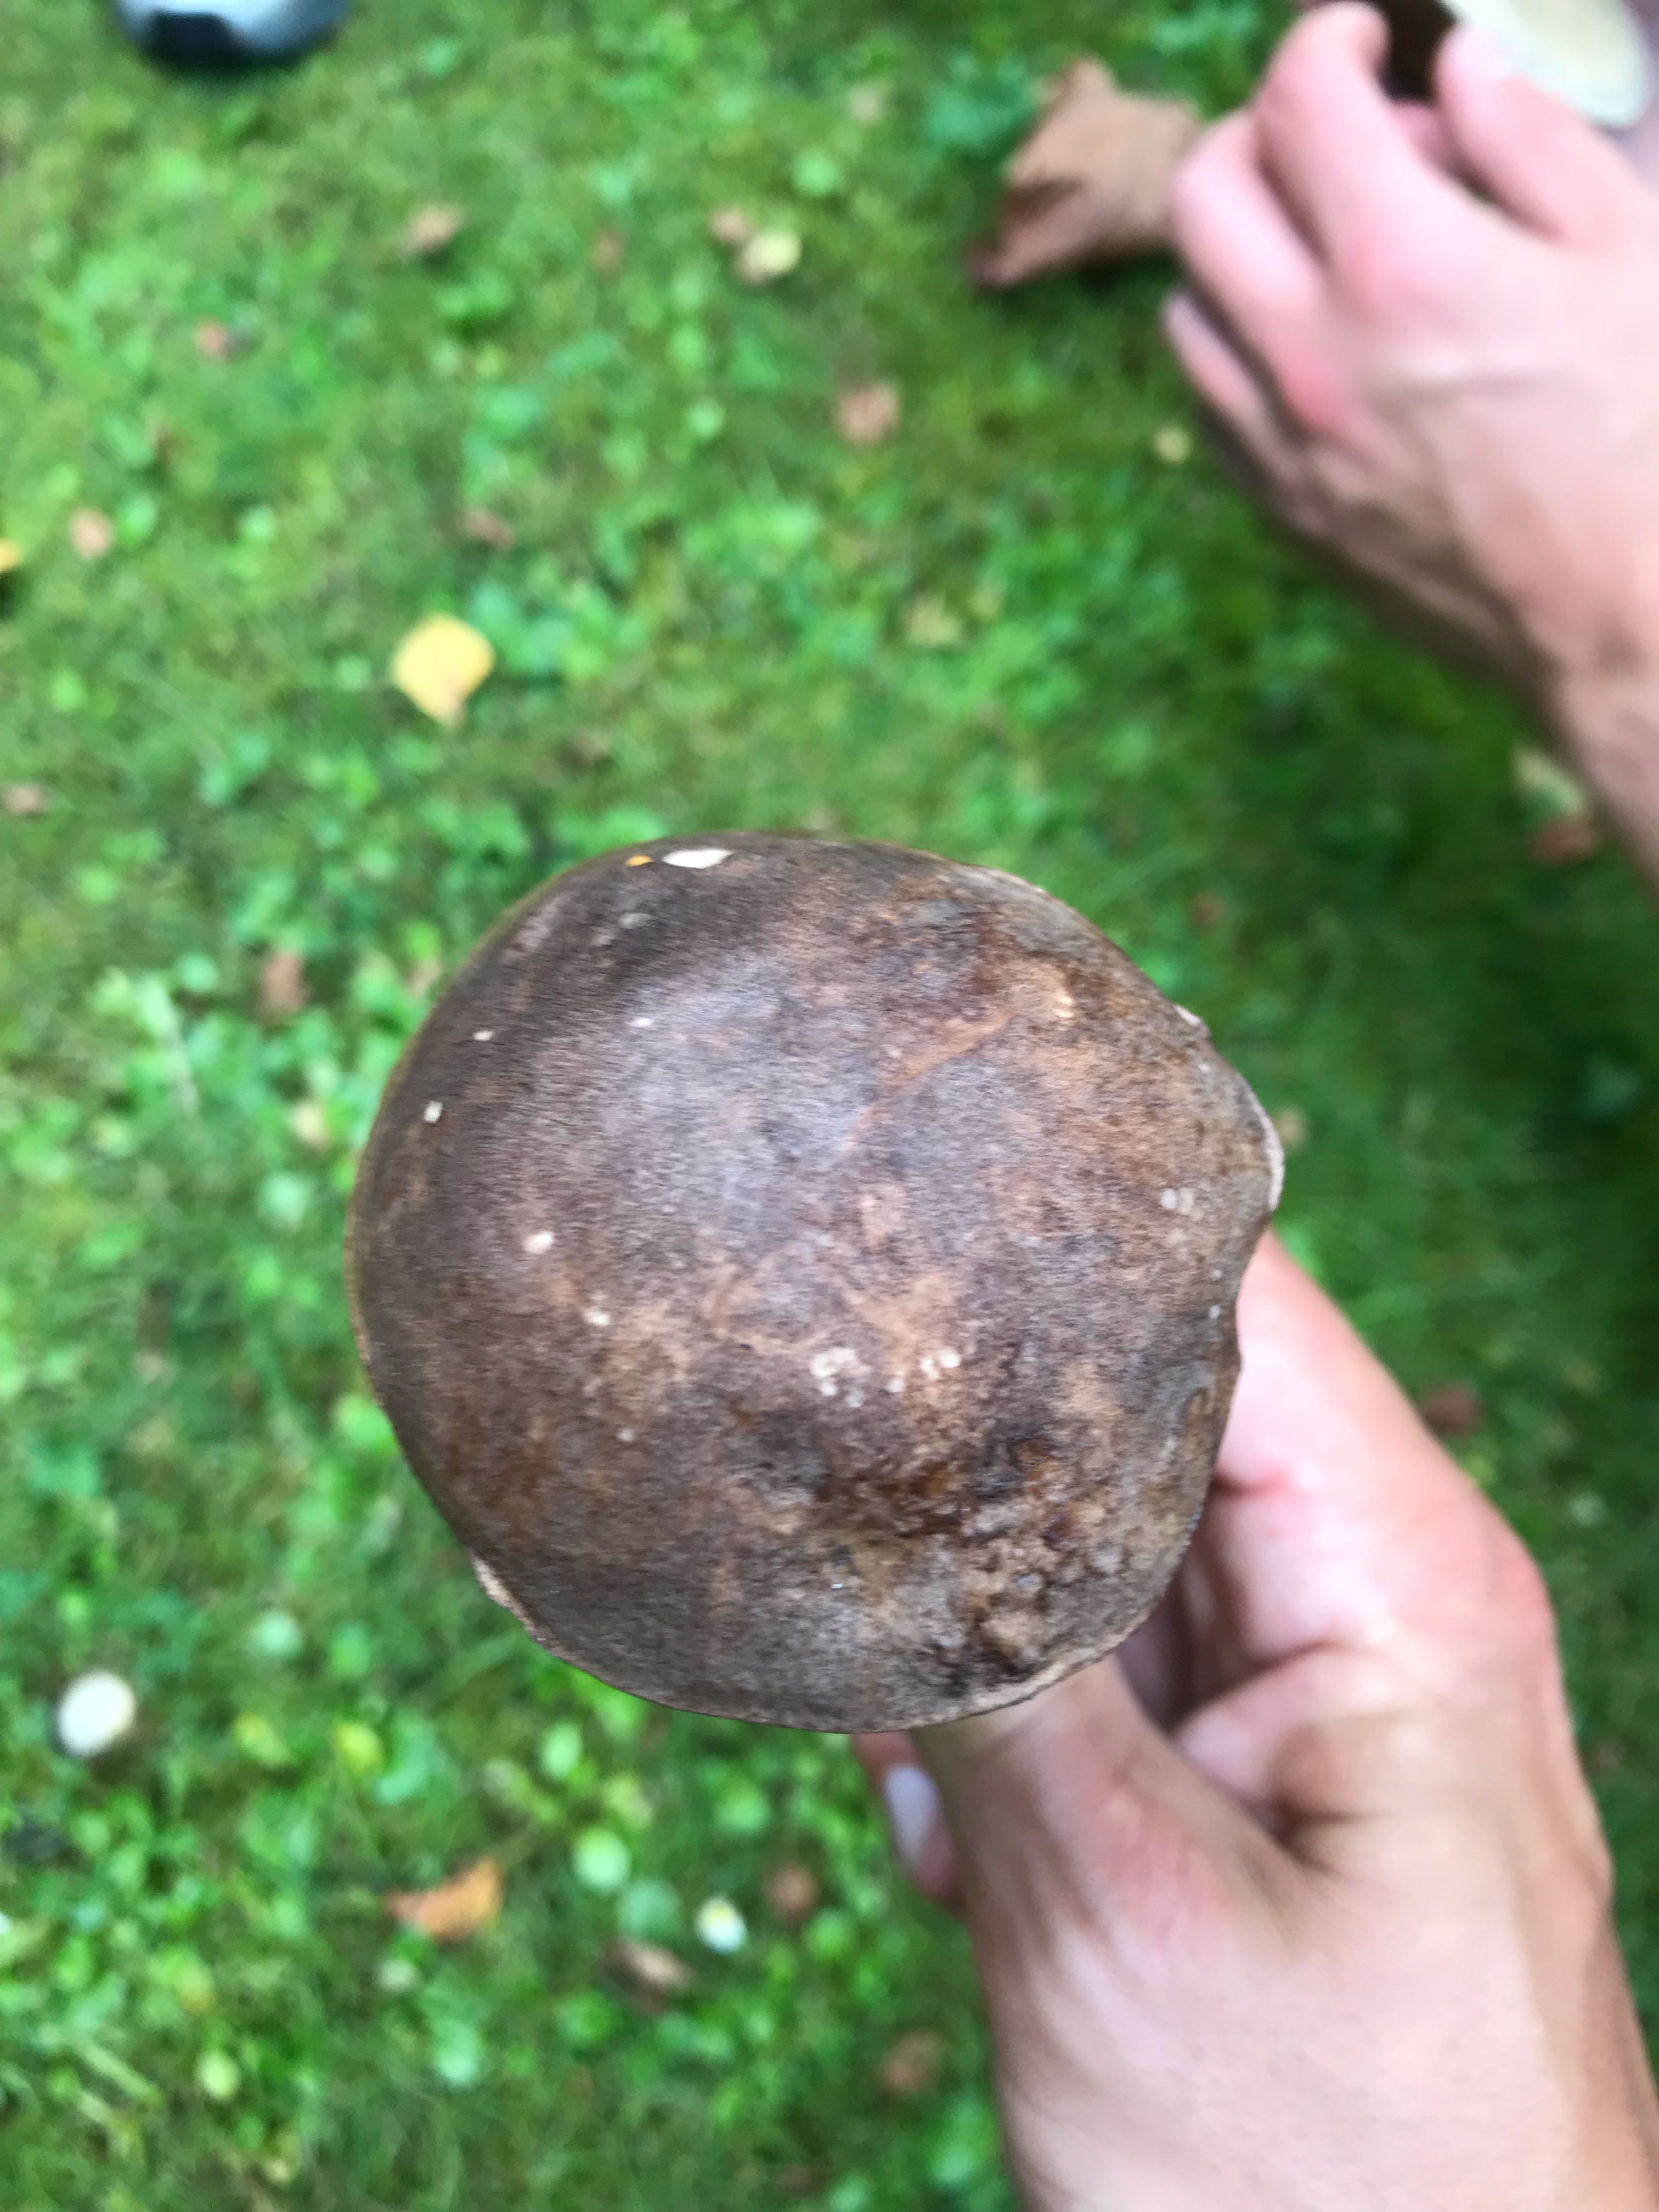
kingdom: Fungi
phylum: Basidiomycota
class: Agaricomycetes
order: Boletales
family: Boletaceae
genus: Leccinum
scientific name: Leccinum scabrum
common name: brun skælrørhat
